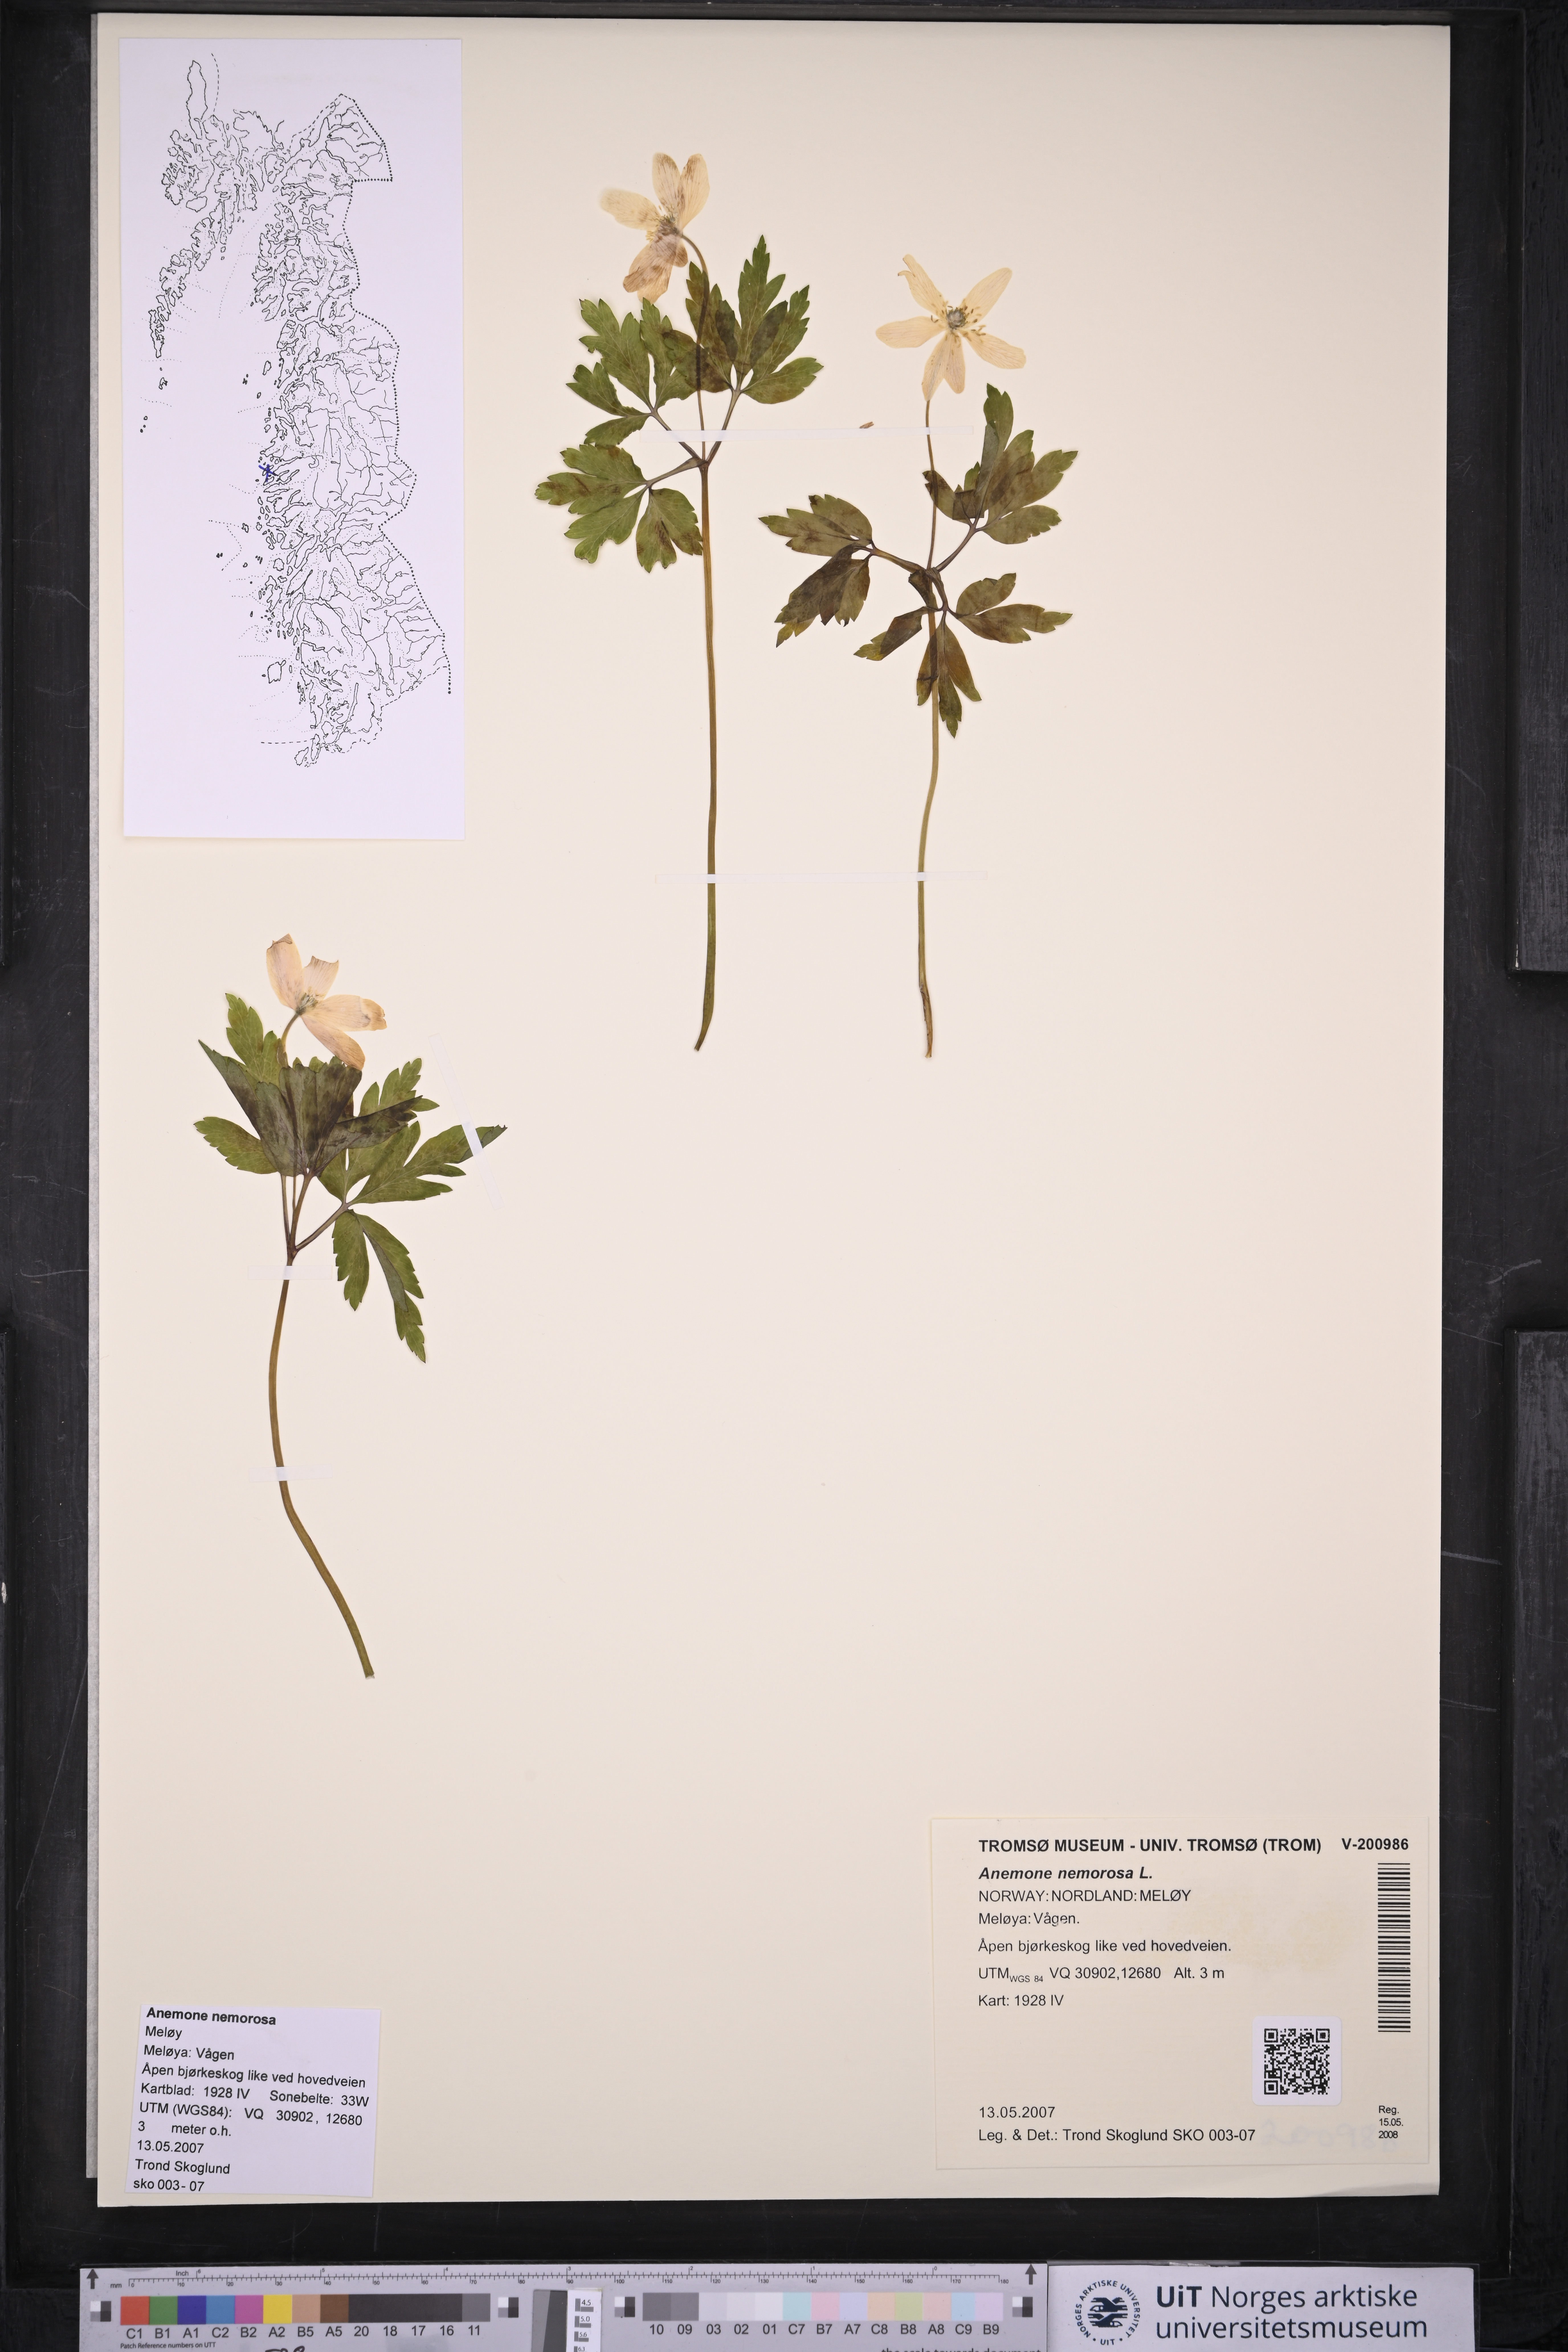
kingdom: Plantae
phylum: Tracheophyta
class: Magnoliopsida
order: Ranunculales
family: Ranunculaceae
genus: Anemone
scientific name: Anemone nemorosa
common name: Wood anemone
